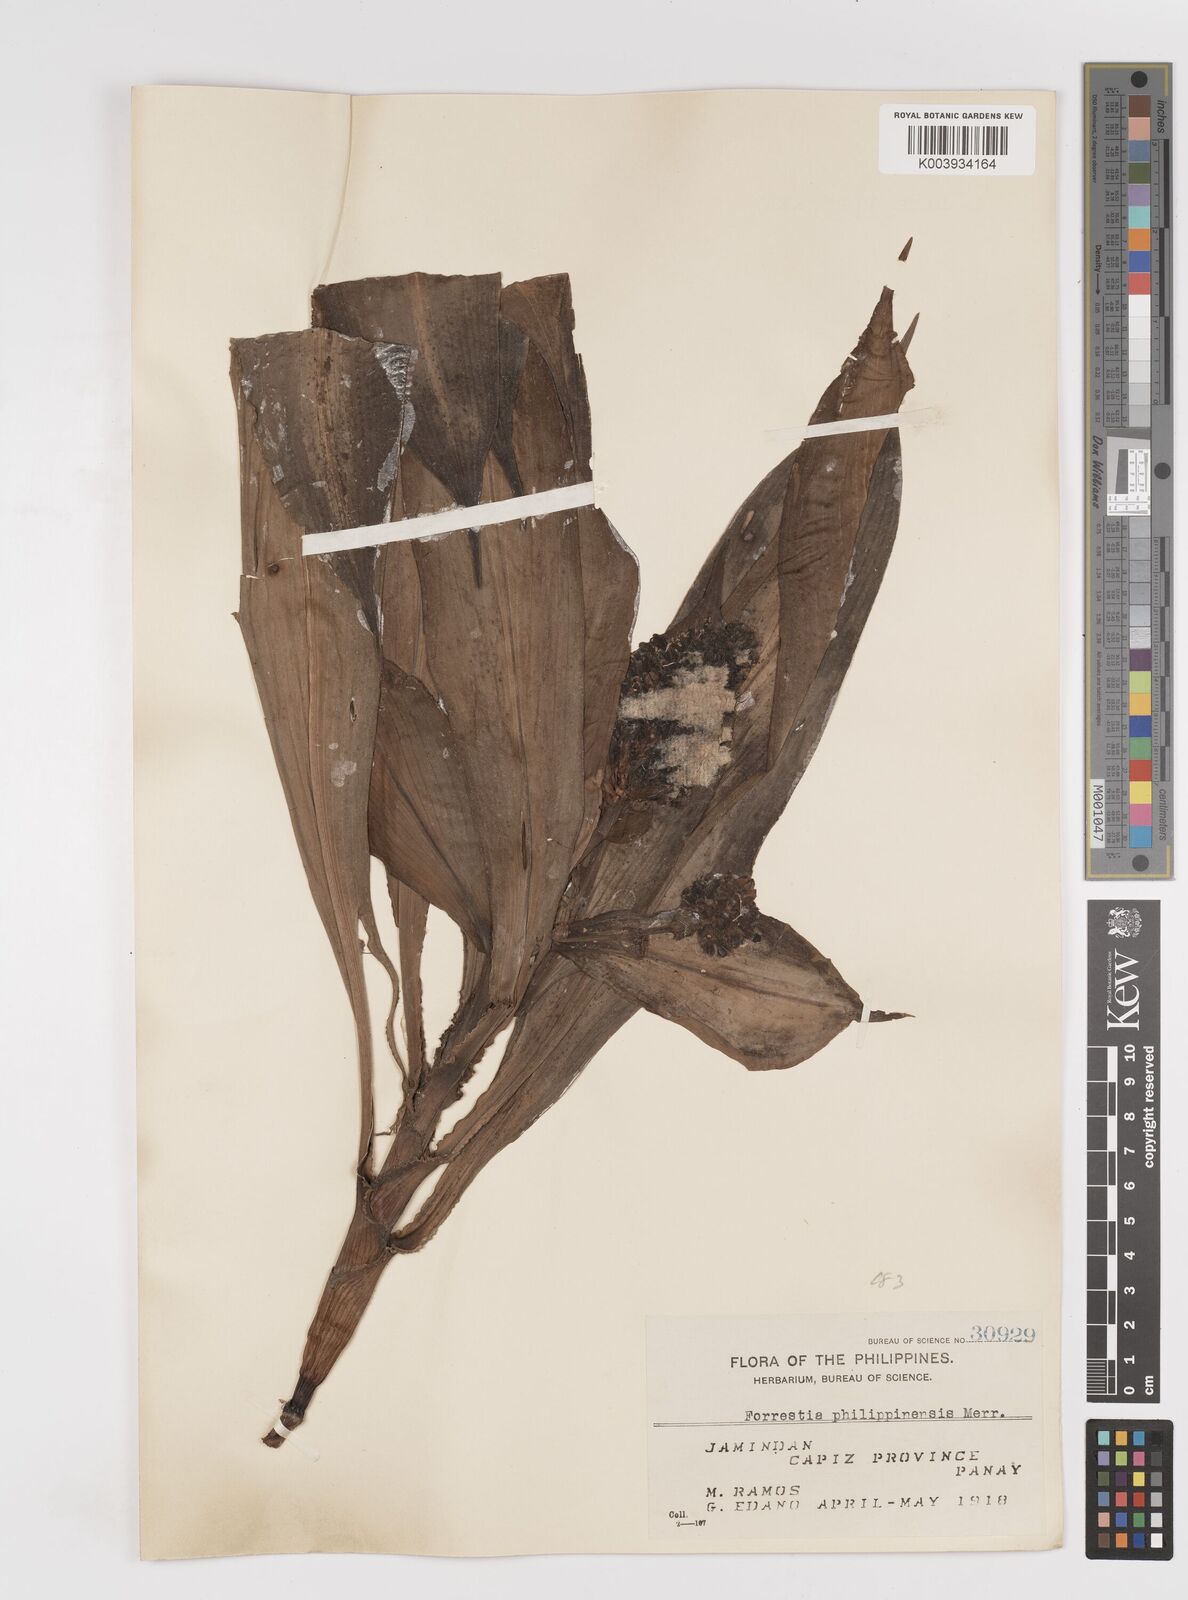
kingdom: Plantae
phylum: Tracheophyta
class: Liliopsida
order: Commelinales
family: Commelinaceae
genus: Amischotolype
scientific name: Amischotolype
